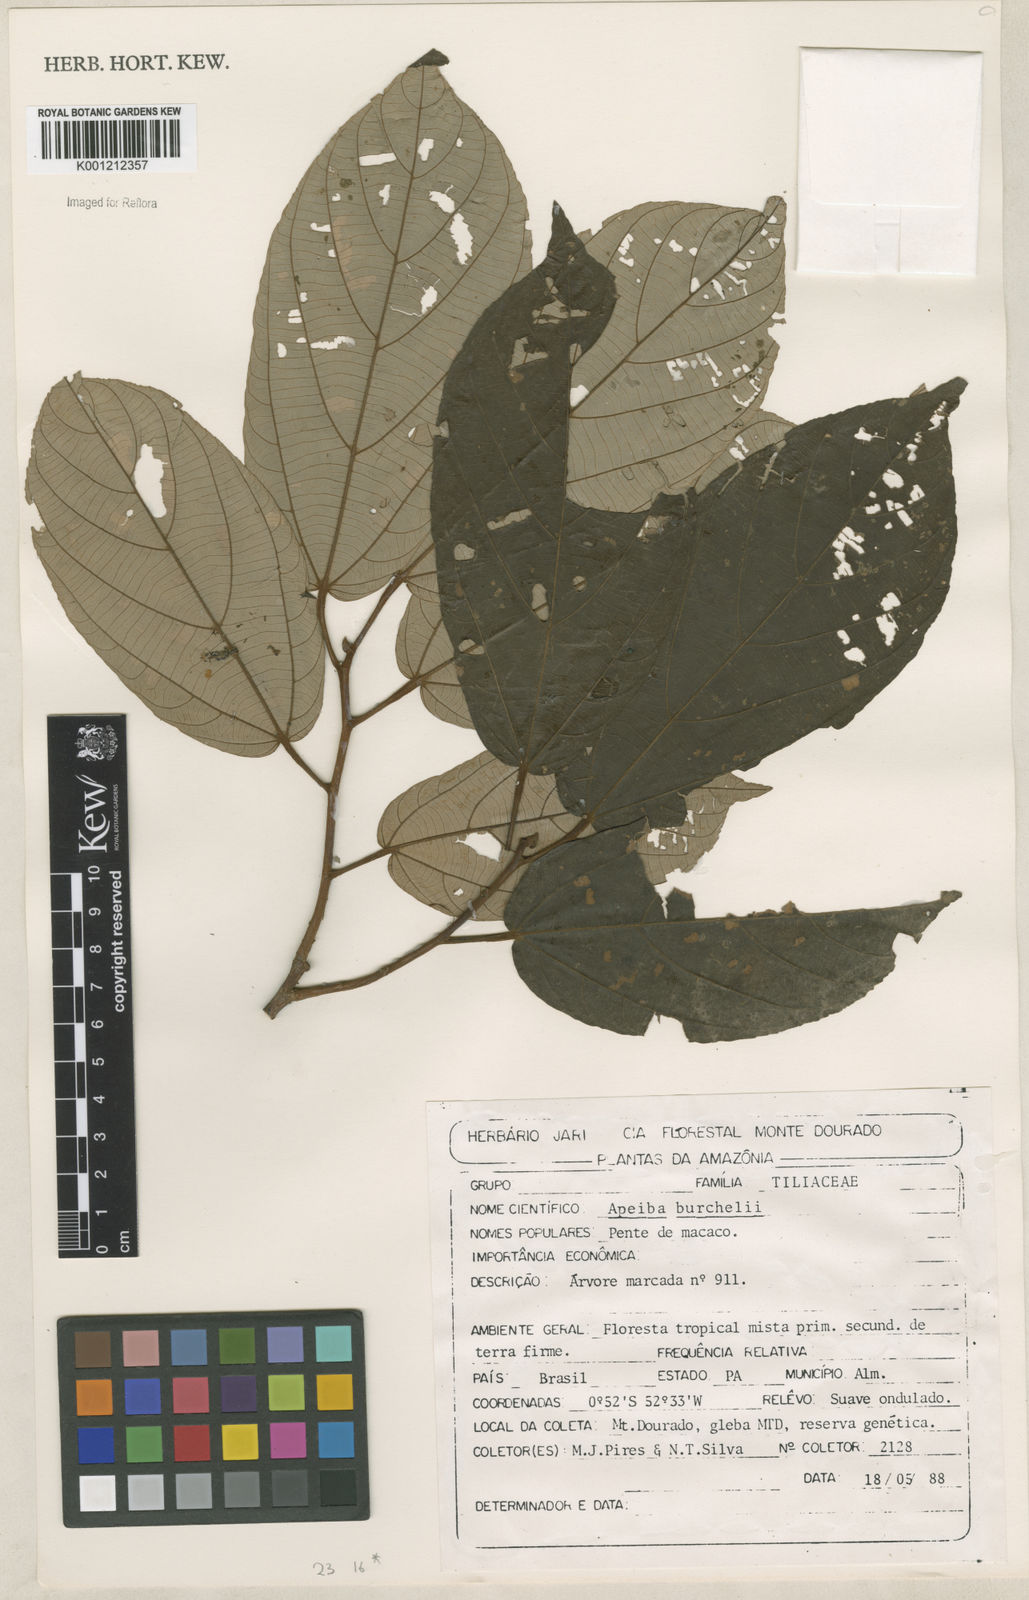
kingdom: Plantae
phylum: Tracheophyta
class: Magnoliopsida
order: Malvales
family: Malvaceae
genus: Apeiba
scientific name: Apeiba
